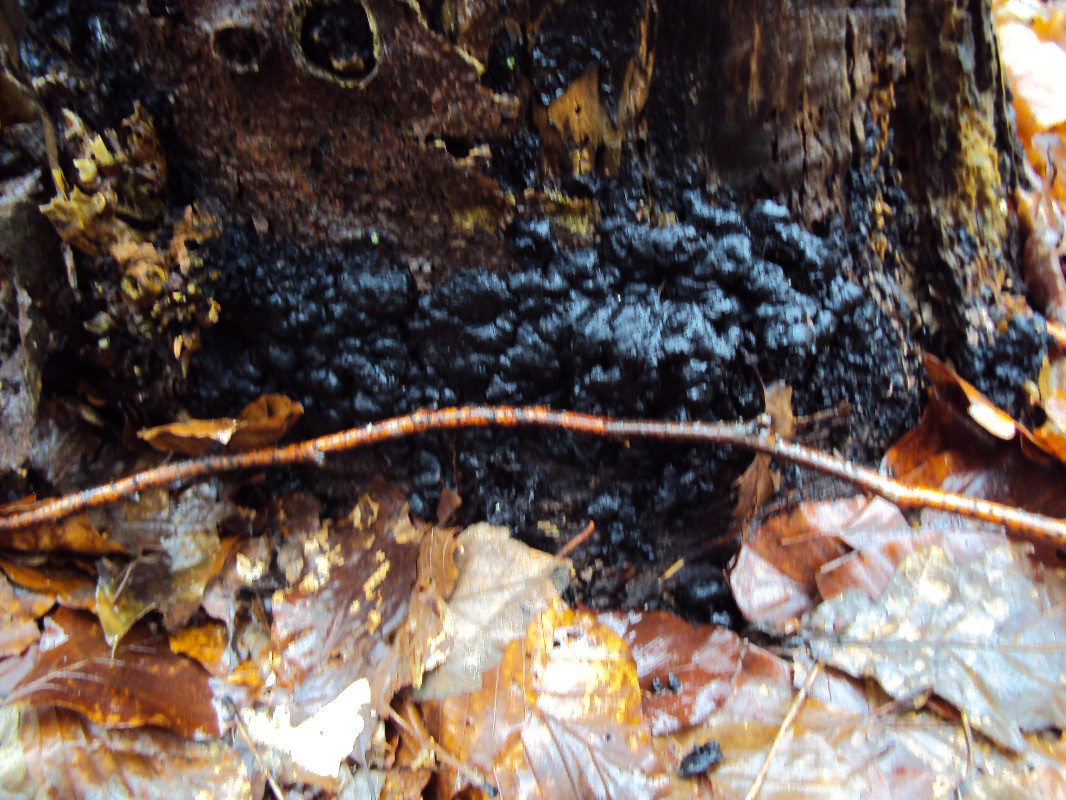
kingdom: Fungi
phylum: Ascomycota
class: Sordariomycetes
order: Xylariales
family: Xylariaceae
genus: Kretzschmaria
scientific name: Kretzschmaria deusta
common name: stor kulsvamp
